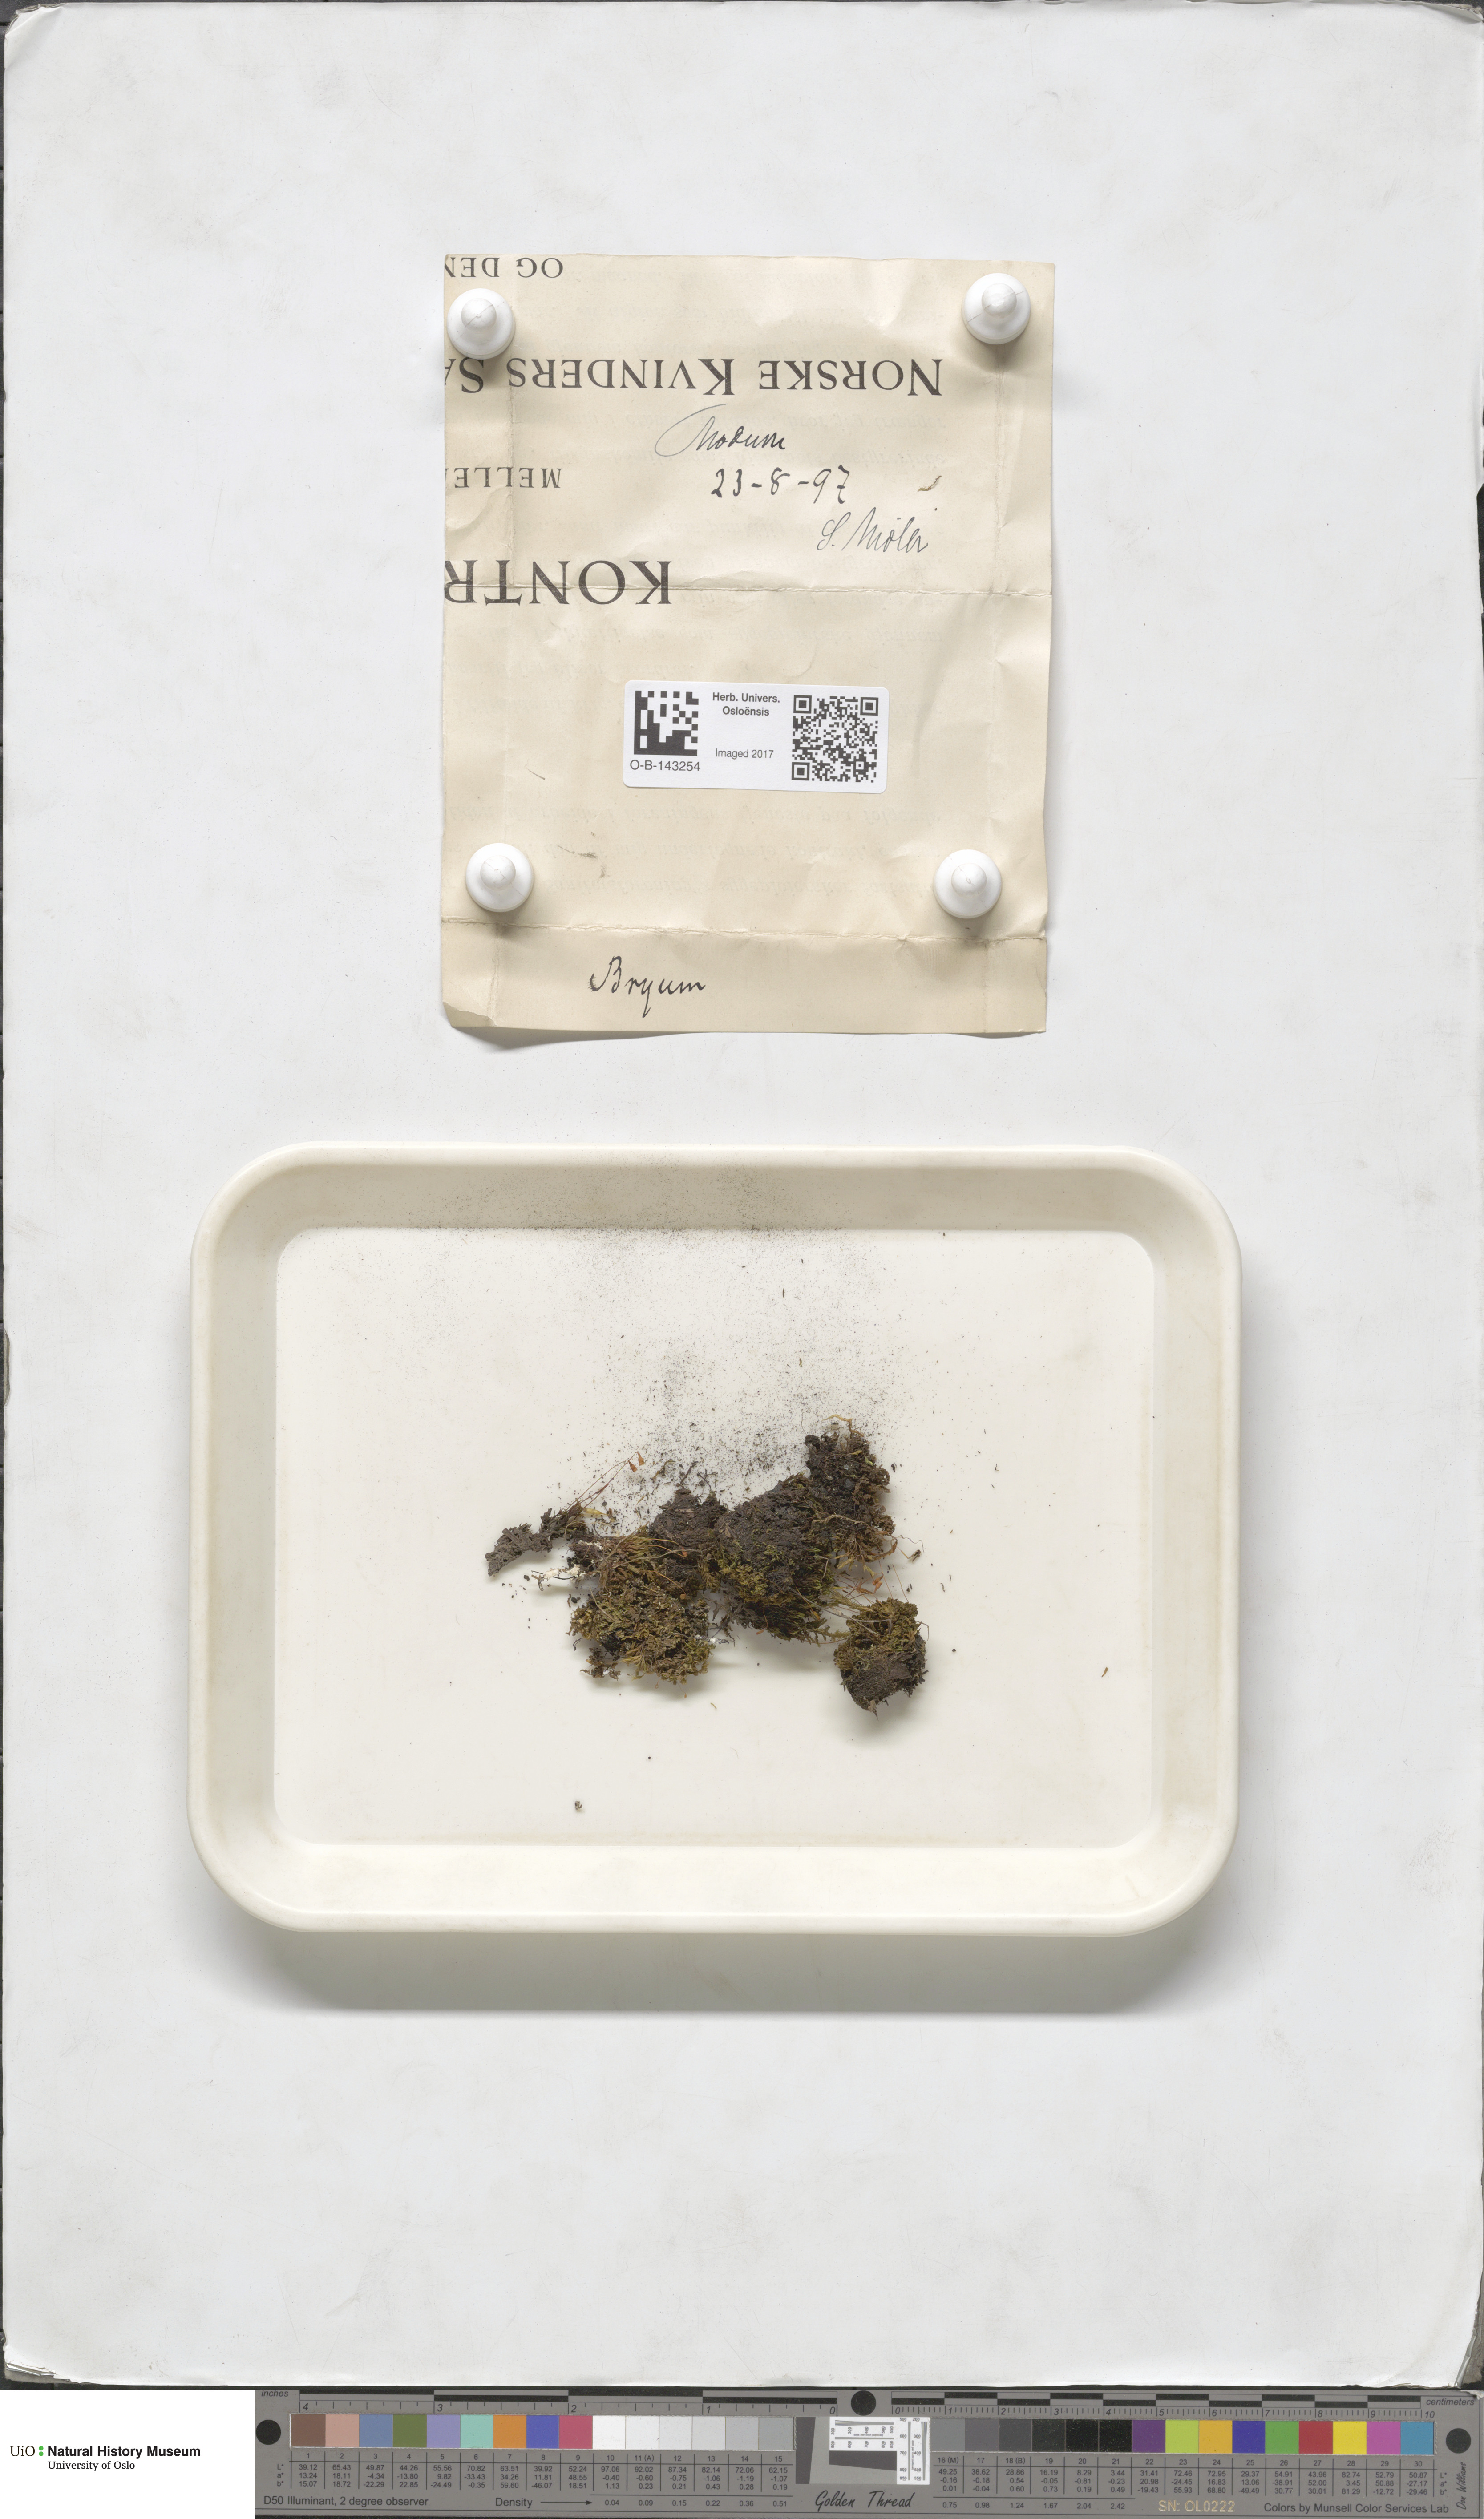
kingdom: Plantae
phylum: Bryophyta
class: Bryopsida
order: Bryales
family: Bryaceae
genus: Bryum
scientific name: Bryum
